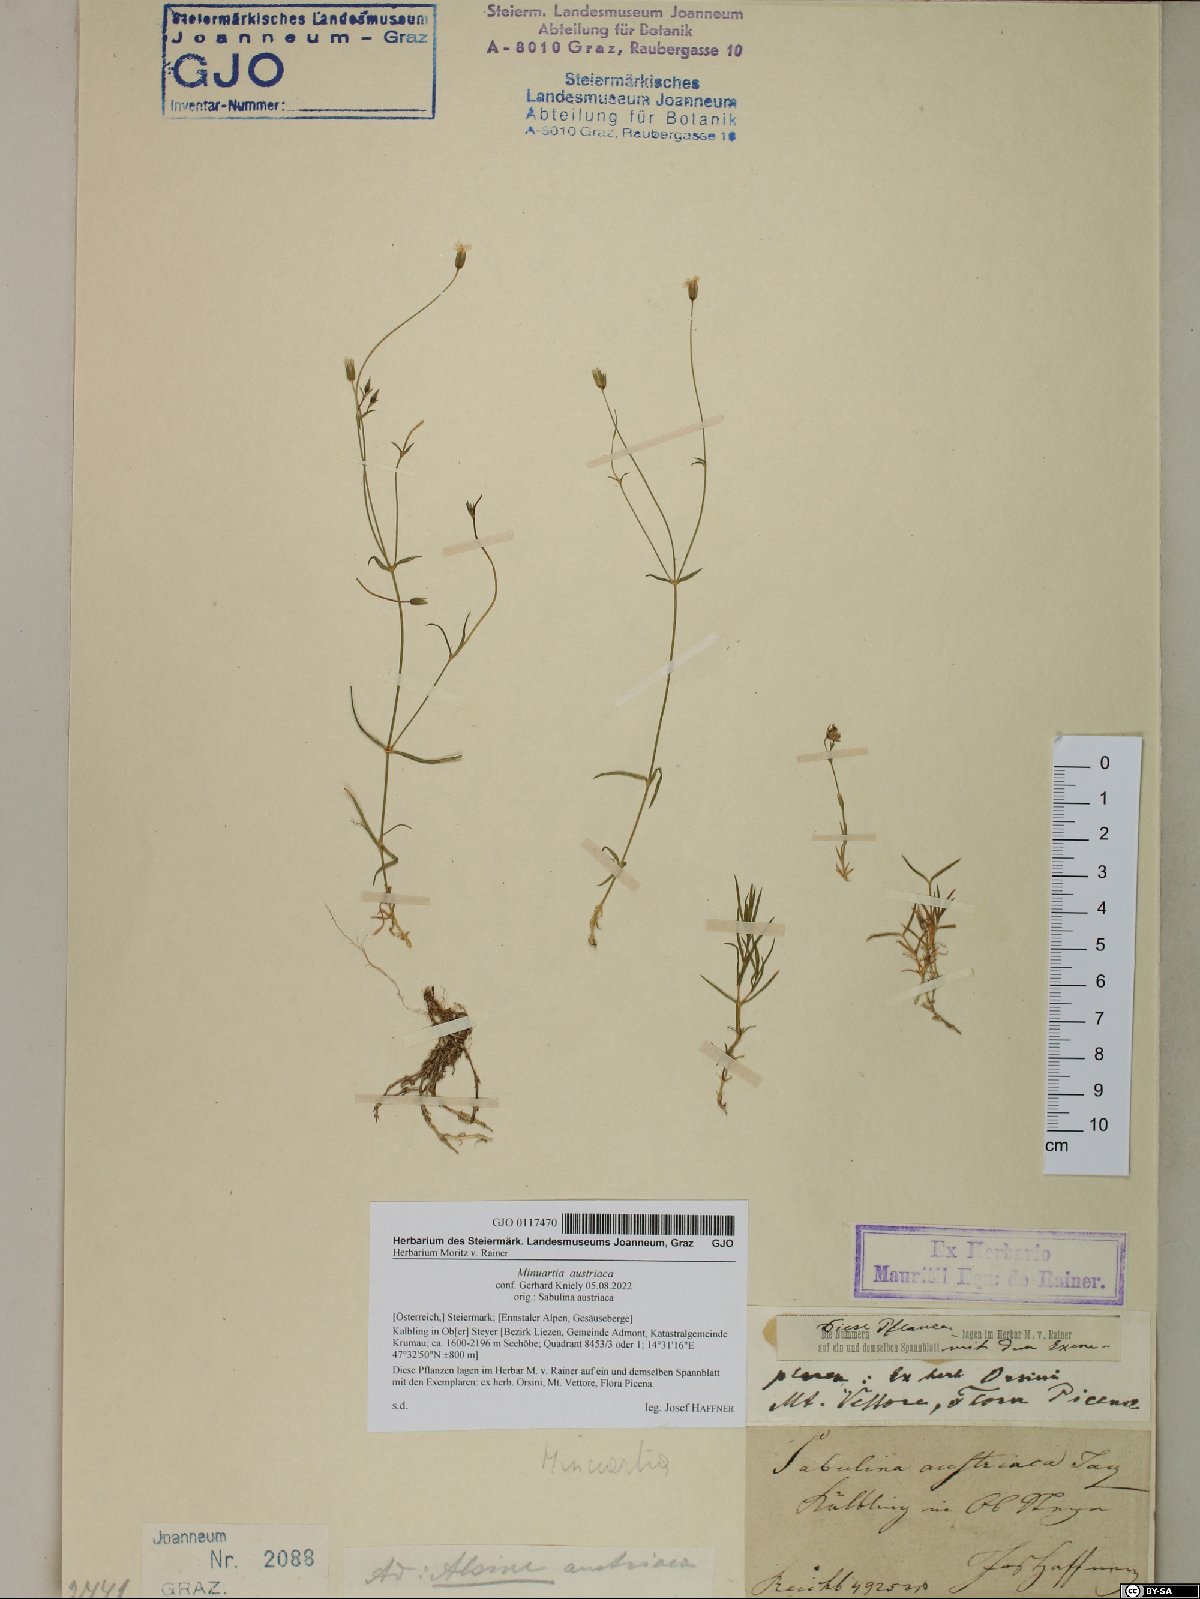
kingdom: Plantae
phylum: Tracheophyta
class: Magnoliopsida
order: Caryophyllales
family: Caryophyllaceae
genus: Sabulina
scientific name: Sabulina austriaca
